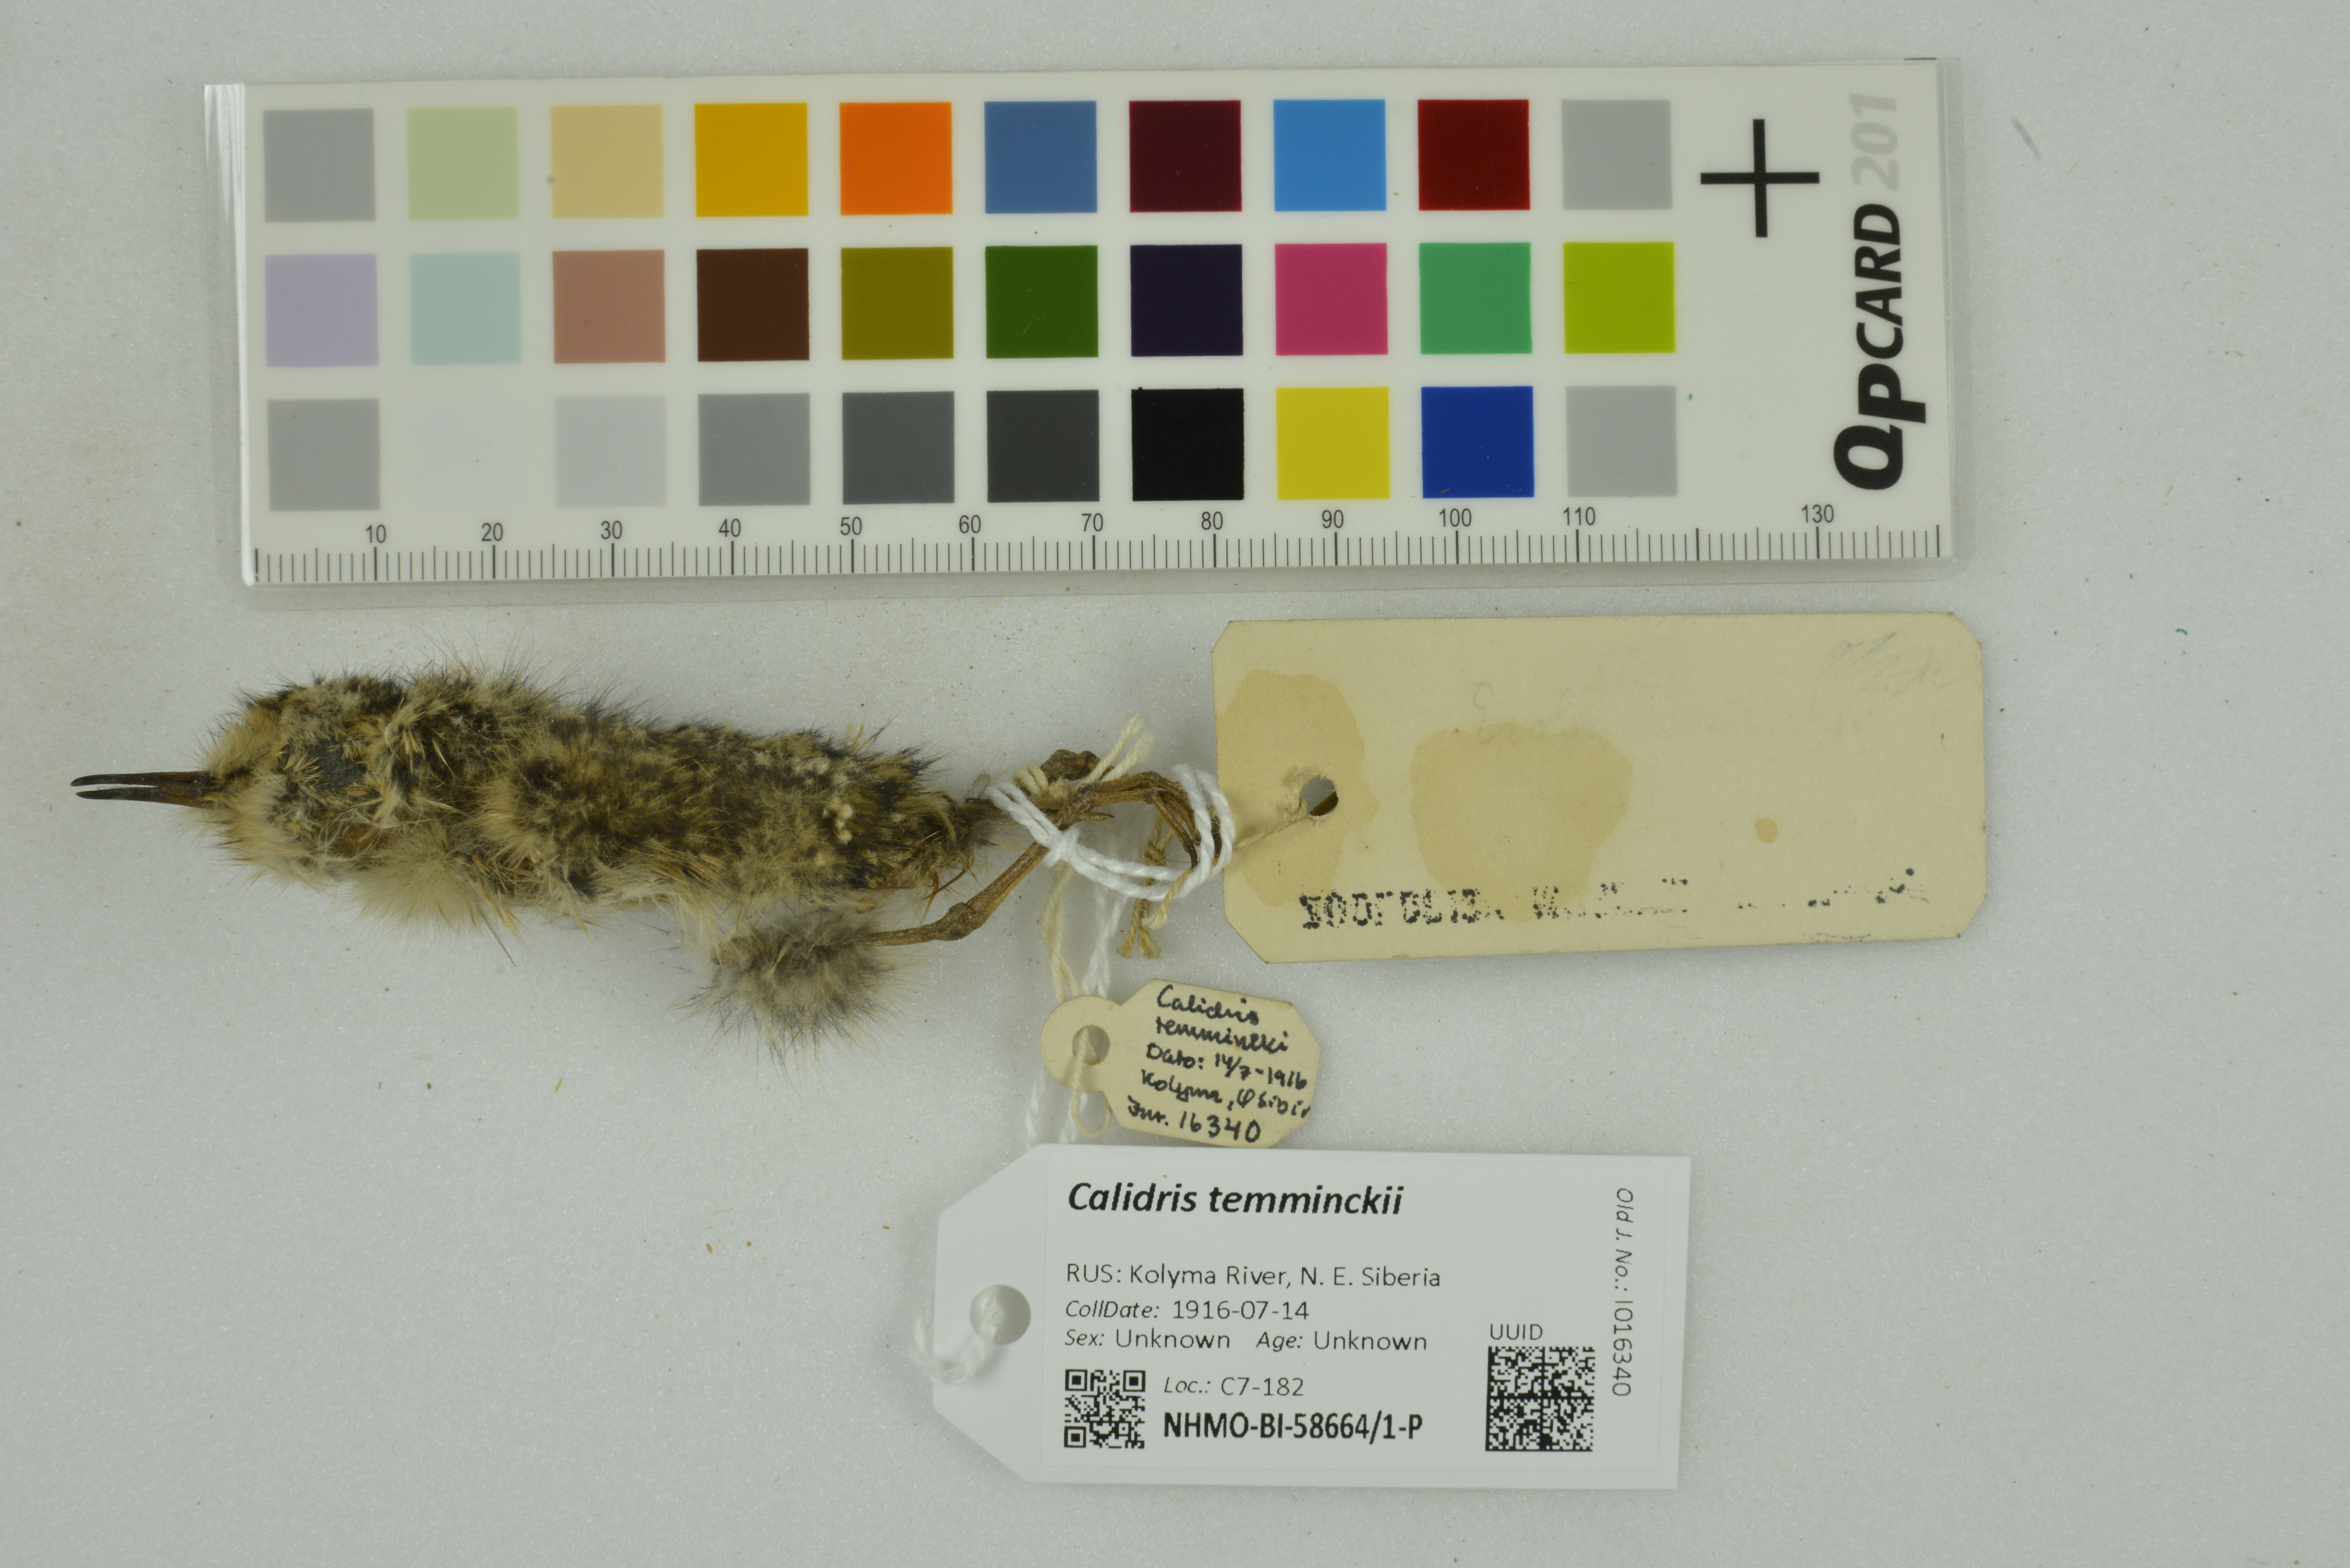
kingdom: Animalia
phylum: Chordata
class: Aves
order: Charadriiformes
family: Scolopacidae
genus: Calidris
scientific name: Calidris temminckii
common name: Temminck's stint
